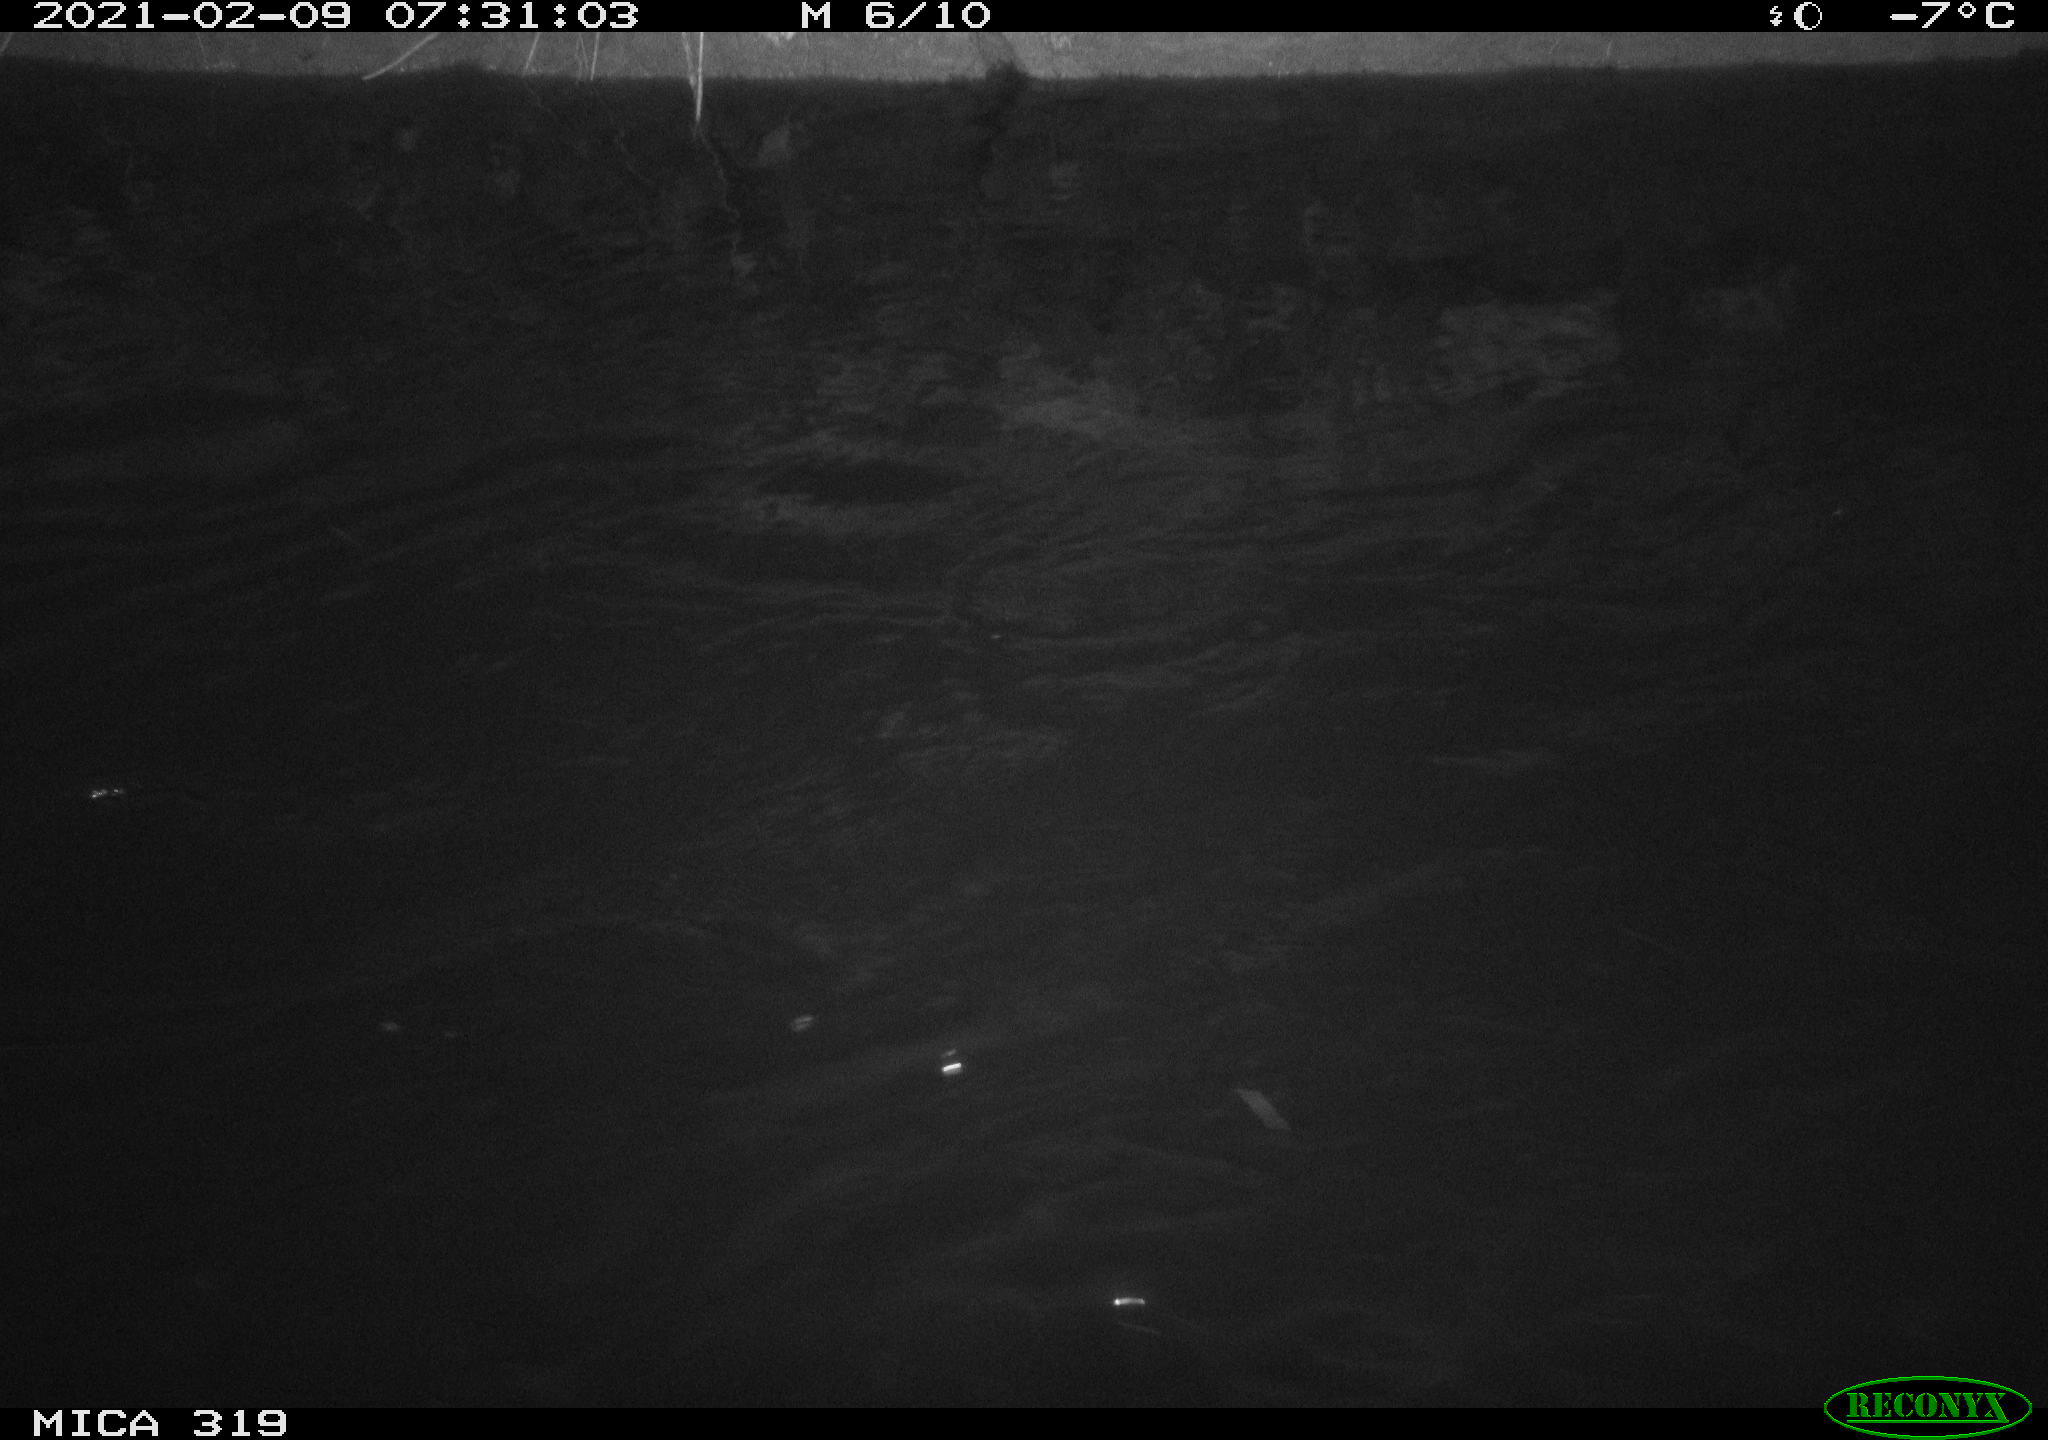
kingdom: Animalia
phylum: Chordata
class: Aves
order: Anseriformes
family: Anatidae
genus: Anas
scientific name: Anas platyrhynchos
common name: Mallard
